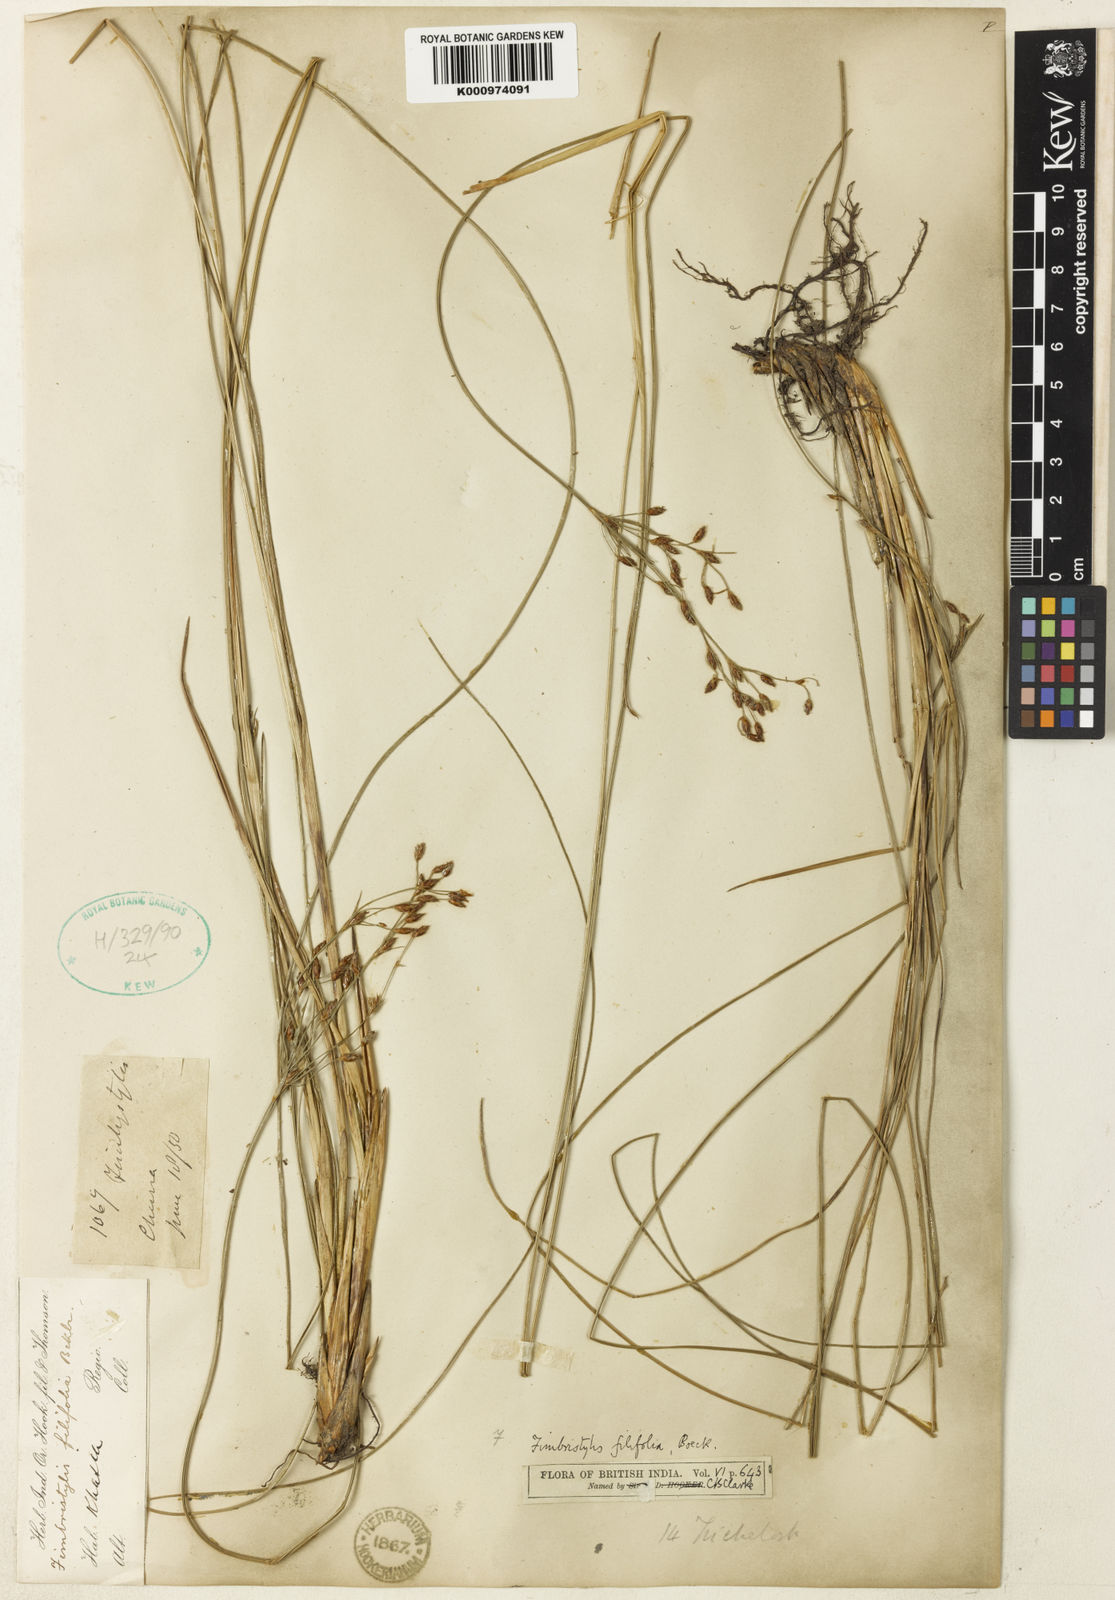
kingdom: Plantae
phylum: Tracheophyta
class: Liliopsida
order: Poales
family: Cyperaceae
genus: Fimbristylis
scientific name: Fimbristylis filifolia
